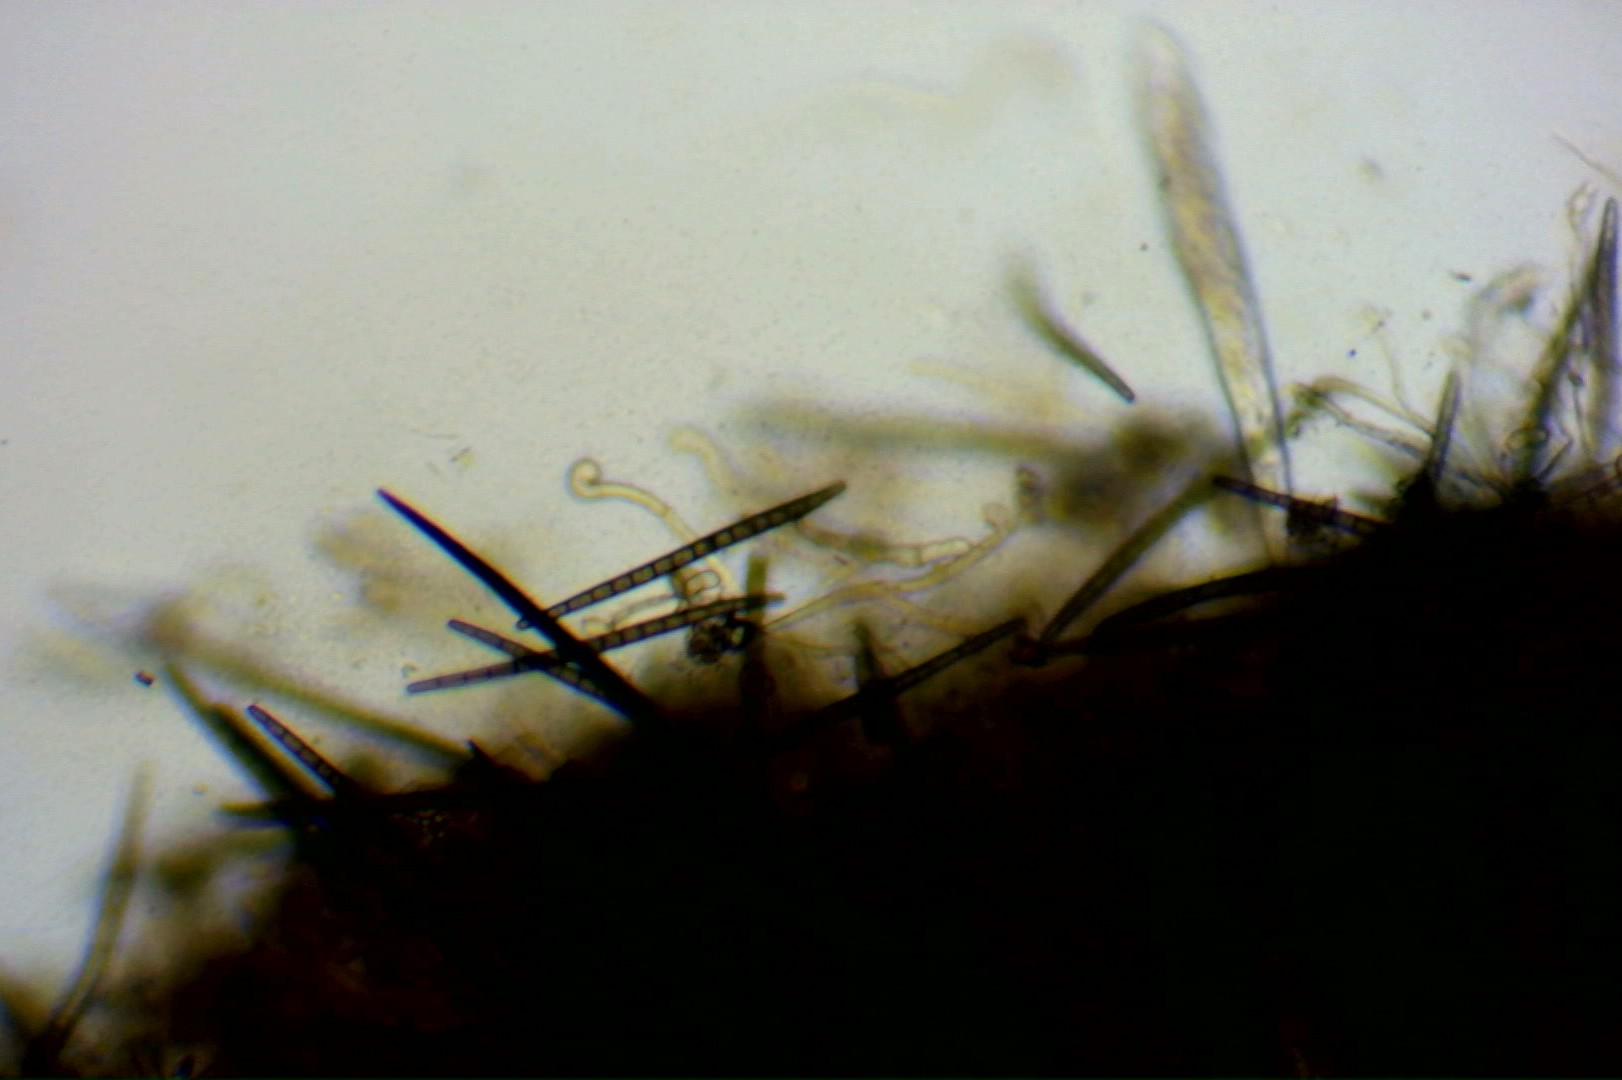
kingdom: Fungi
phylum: Ascomycota
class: Geoglossomycetes
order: Geoglossales
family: Geoglossaceae
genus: Trichoglossum
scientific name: Trichoglossum hirsutum
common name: håret jordtunge
